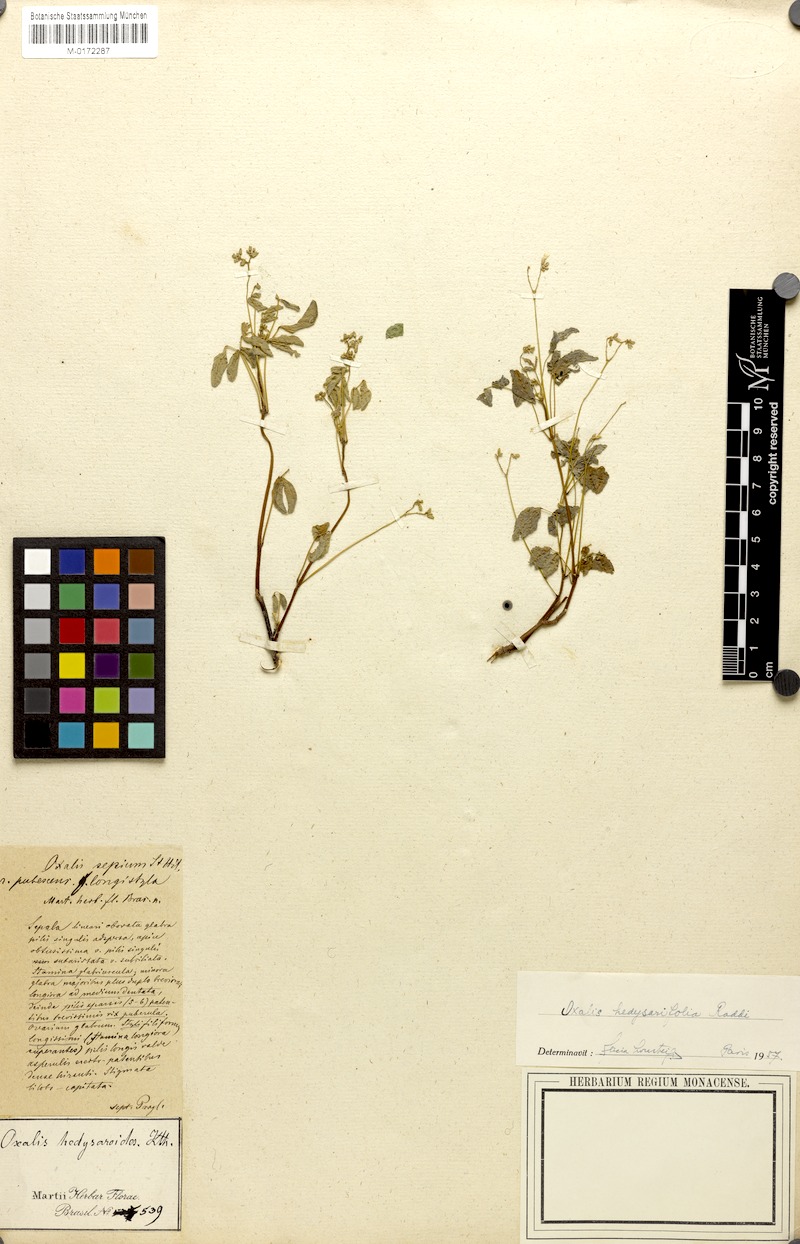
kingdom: Plantae
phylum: Tracheophyta
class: Magnoliopsida
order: Oxalidales
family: Oxalidaceae
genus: Oxalis
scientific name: Oxalis frutescens
